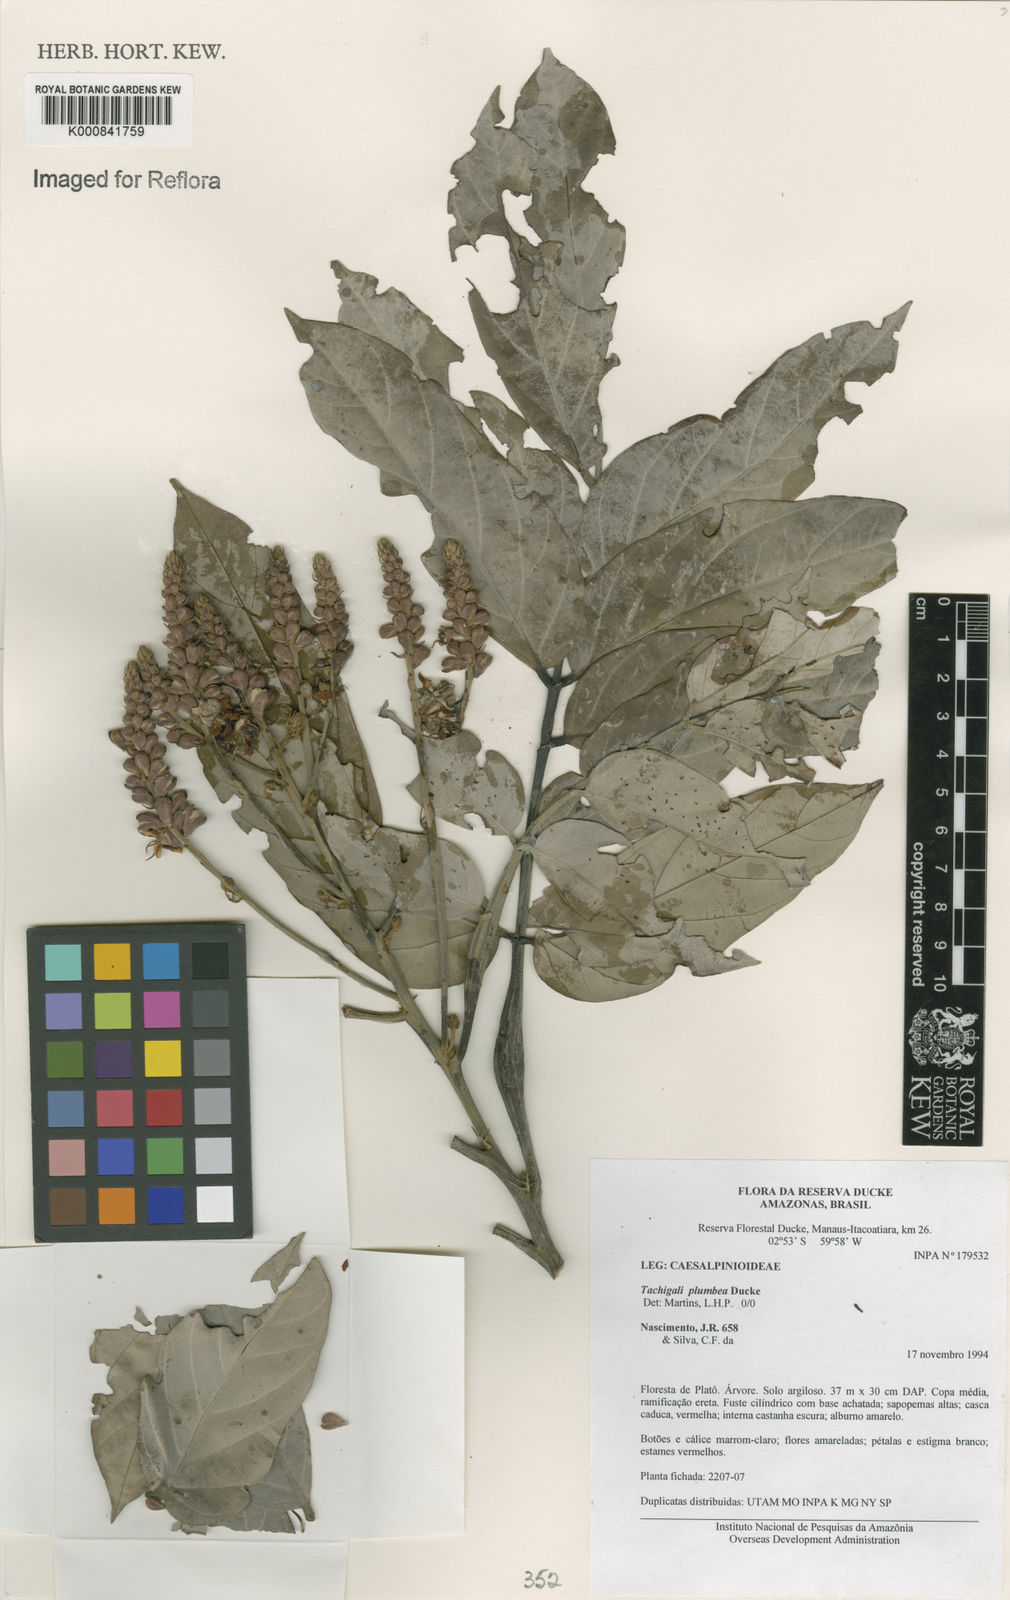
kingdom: Plantae
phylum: Tracheophyta
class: Magnoliopsida
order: Fabales
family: Fabaceae
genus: Tachigali
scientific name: Tachigali plumbea
